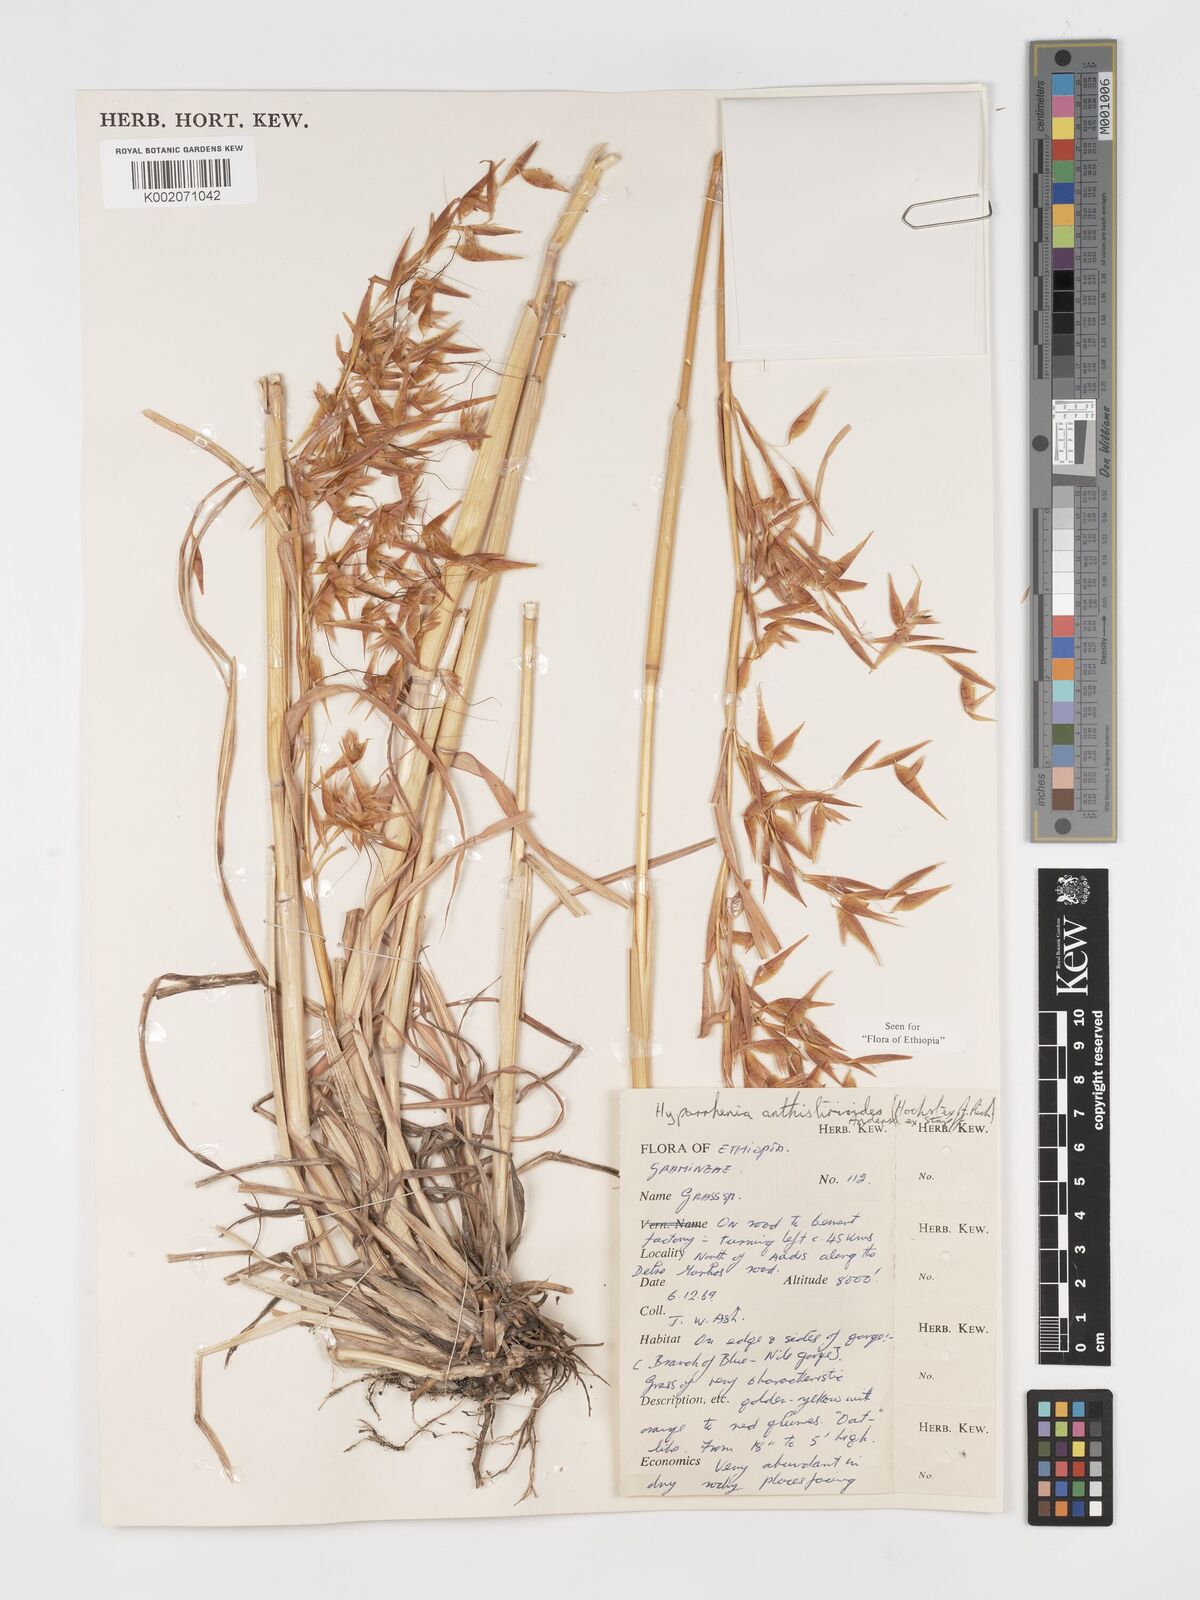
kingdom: Plantae
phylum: Tracheophyta
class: Liliopsida
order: Poales
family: Poaceae
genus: Hyparrhenia
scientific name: Hyparrhenia anthistirioides
